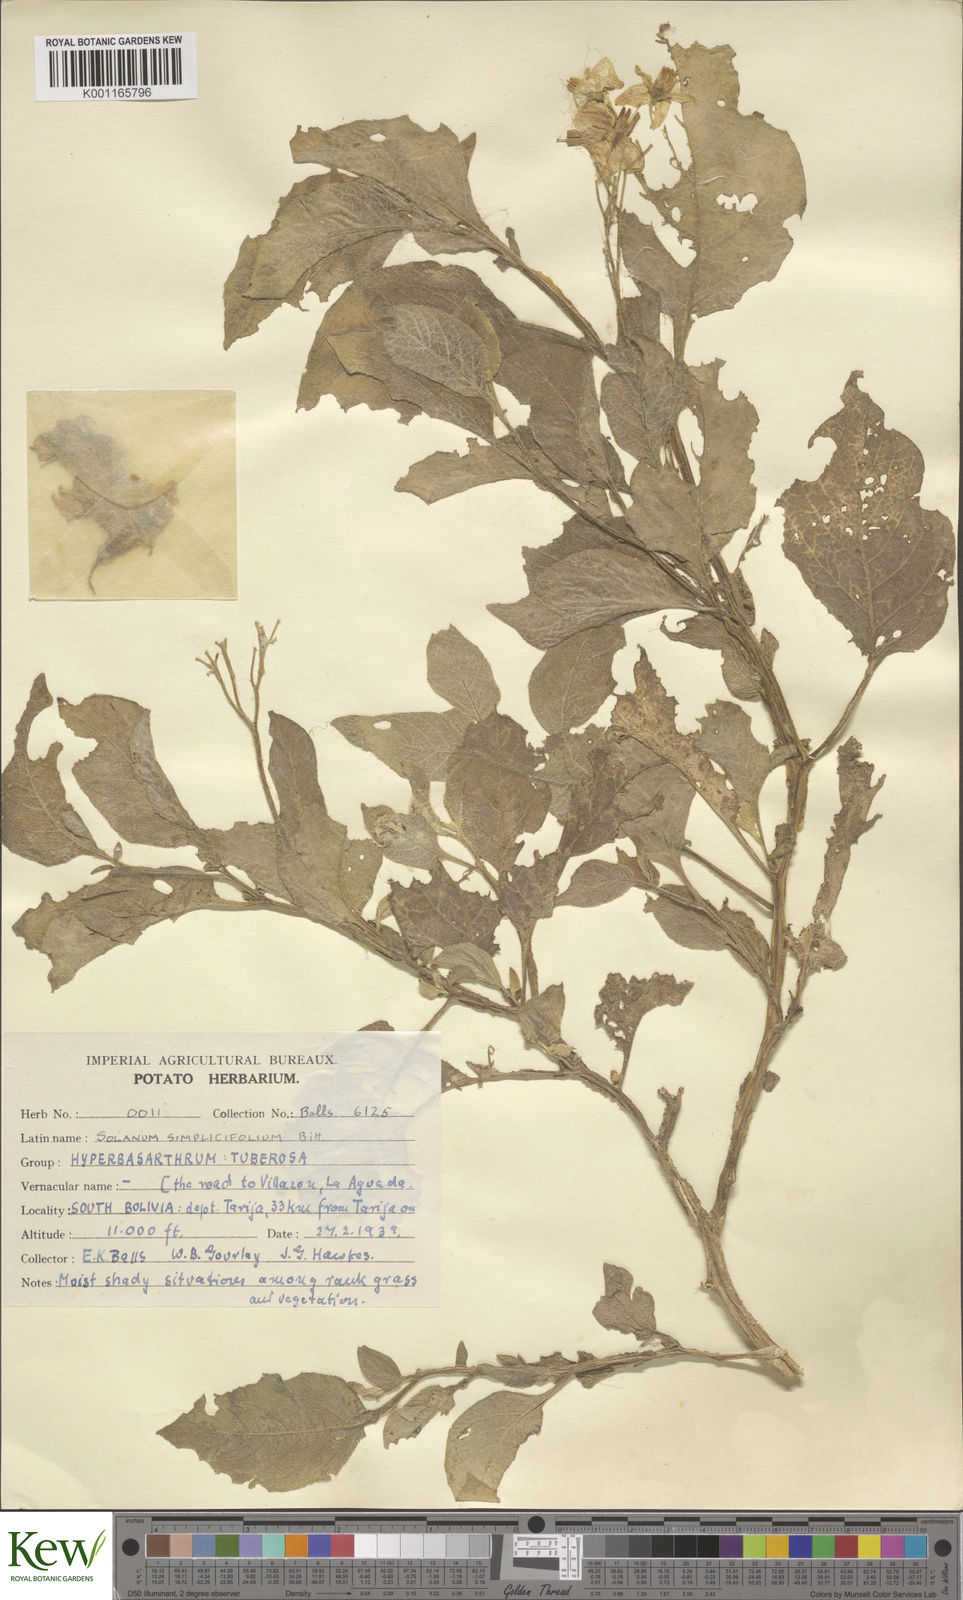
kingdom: Plantae
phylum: Tracheophyta
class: Magnoliopsida
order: Solanales
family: Solanaceae
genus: Solanum
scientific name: Solanum microdontum
